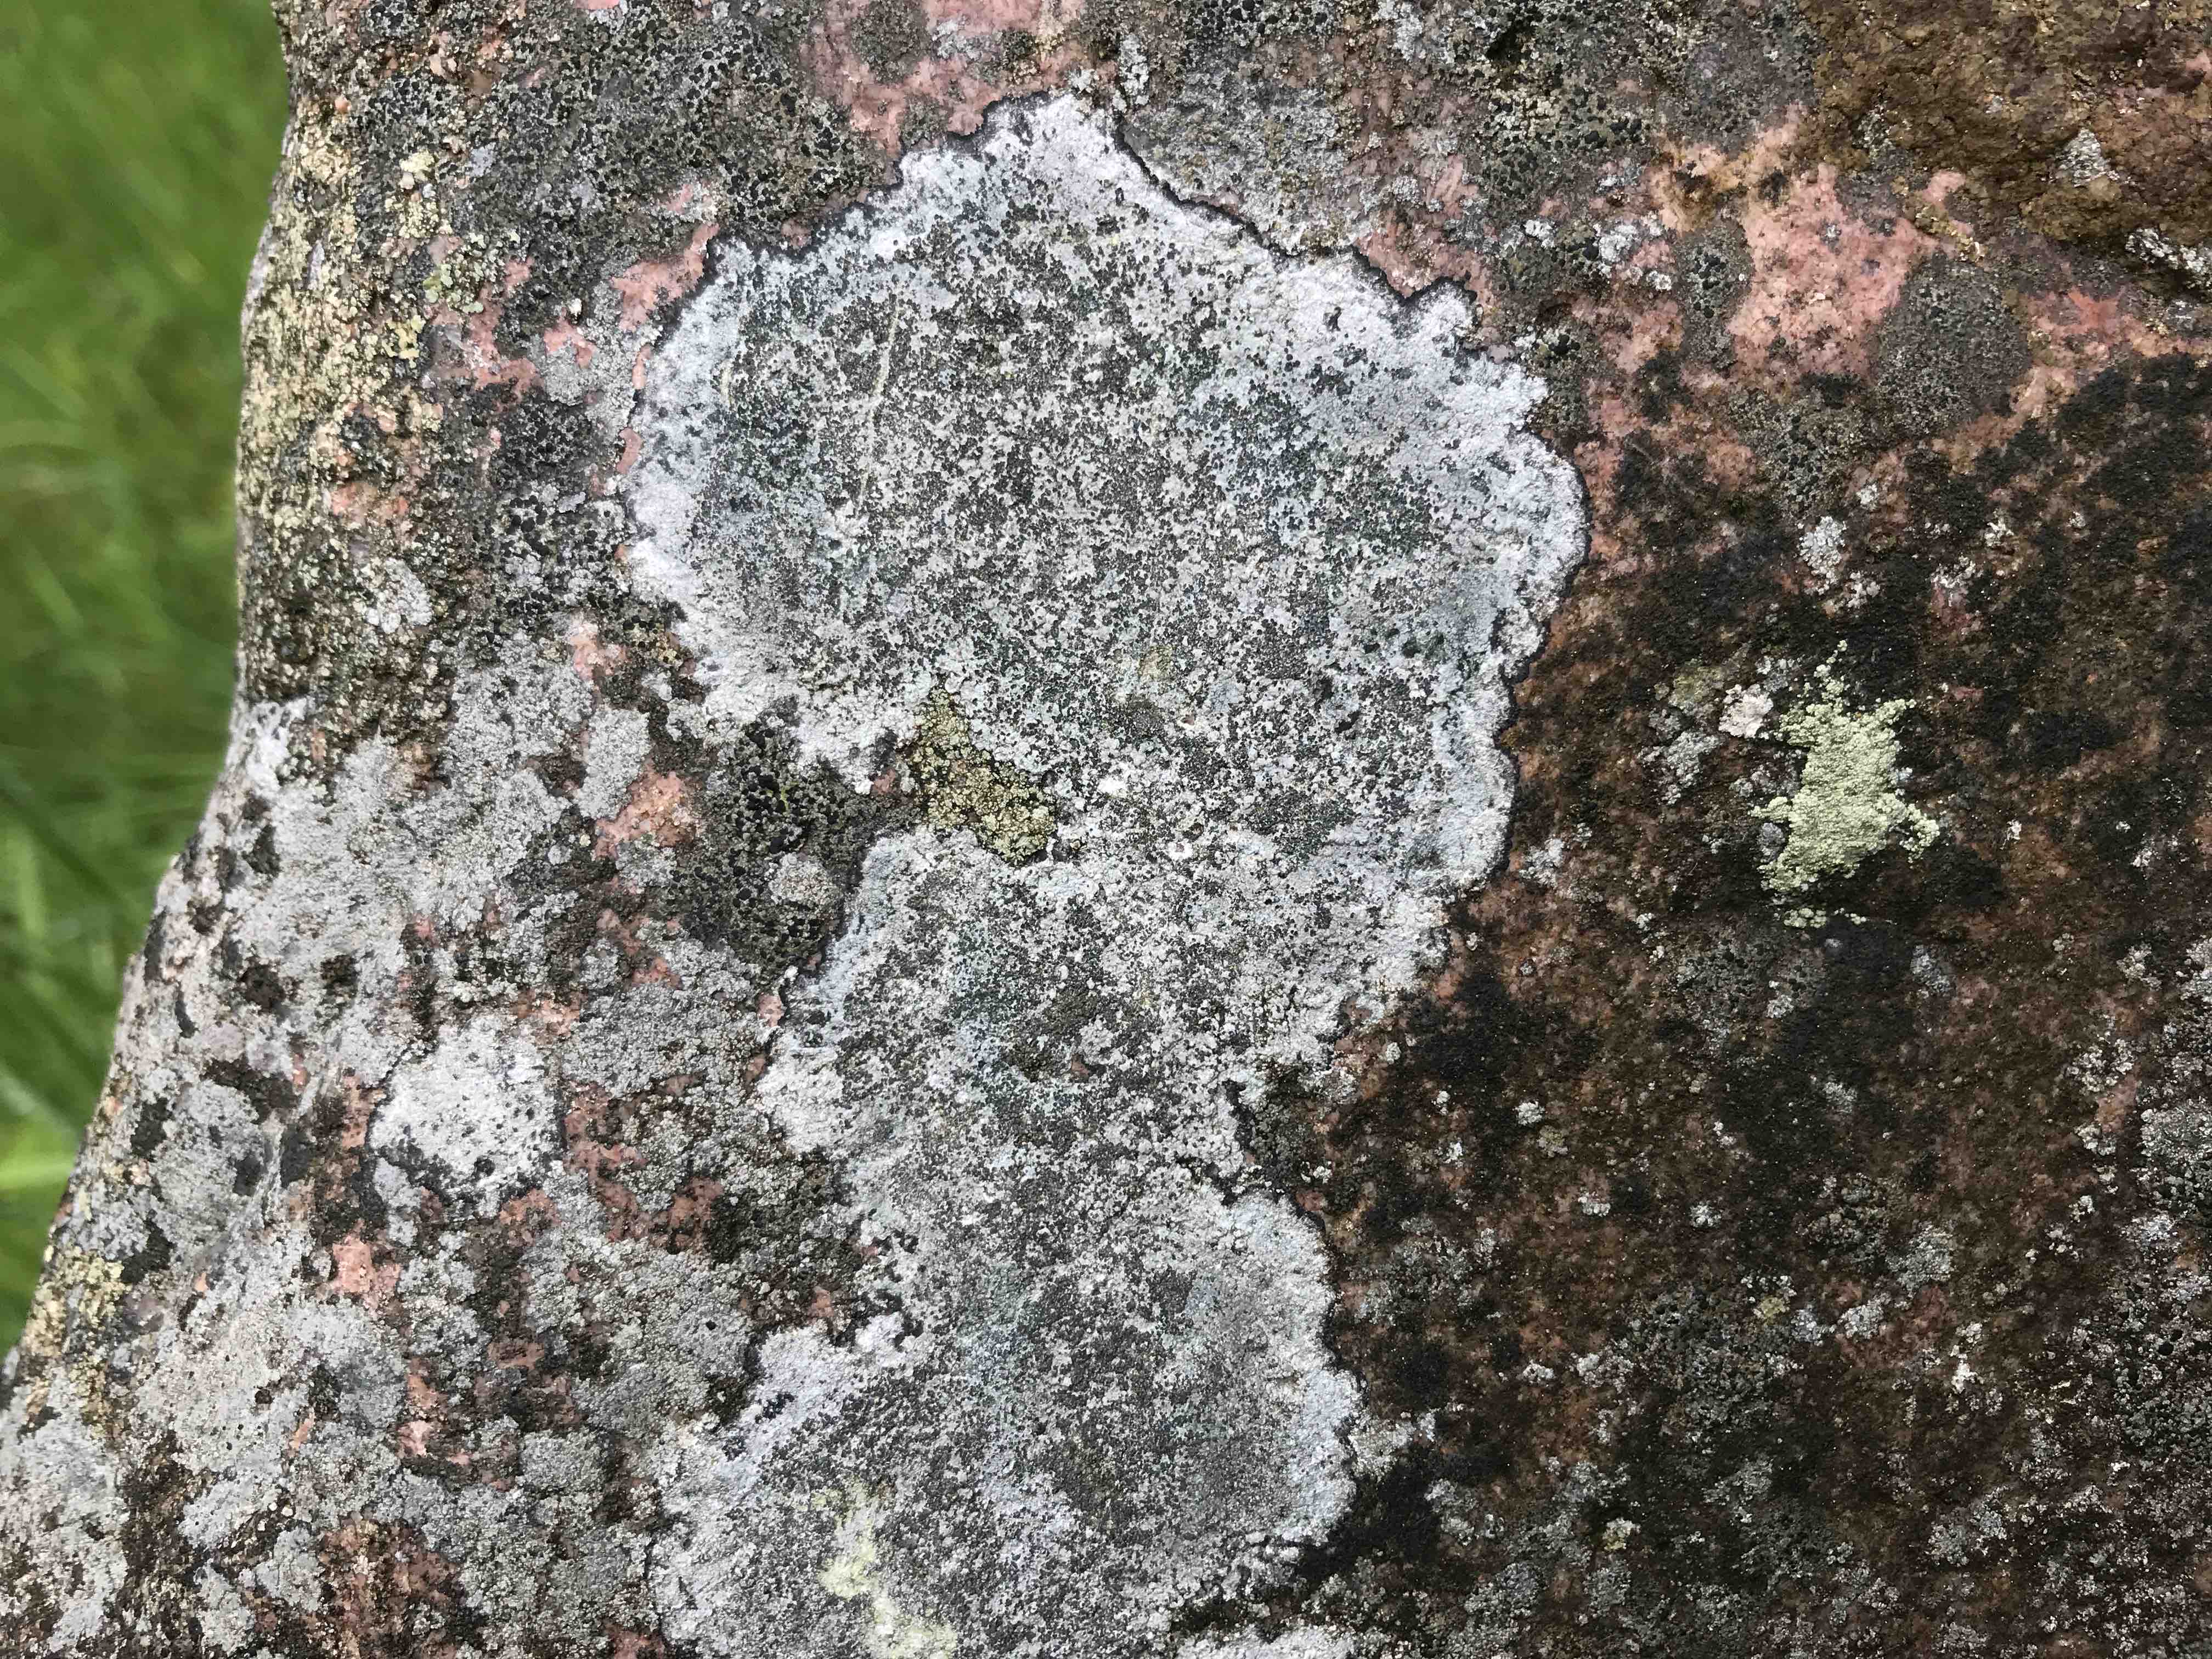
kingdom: Fungi
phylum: Ascomycota
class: Lecanoromycetes
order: Lecideales
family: Lecideaceae
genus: Porpidia
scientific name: Porpidia
